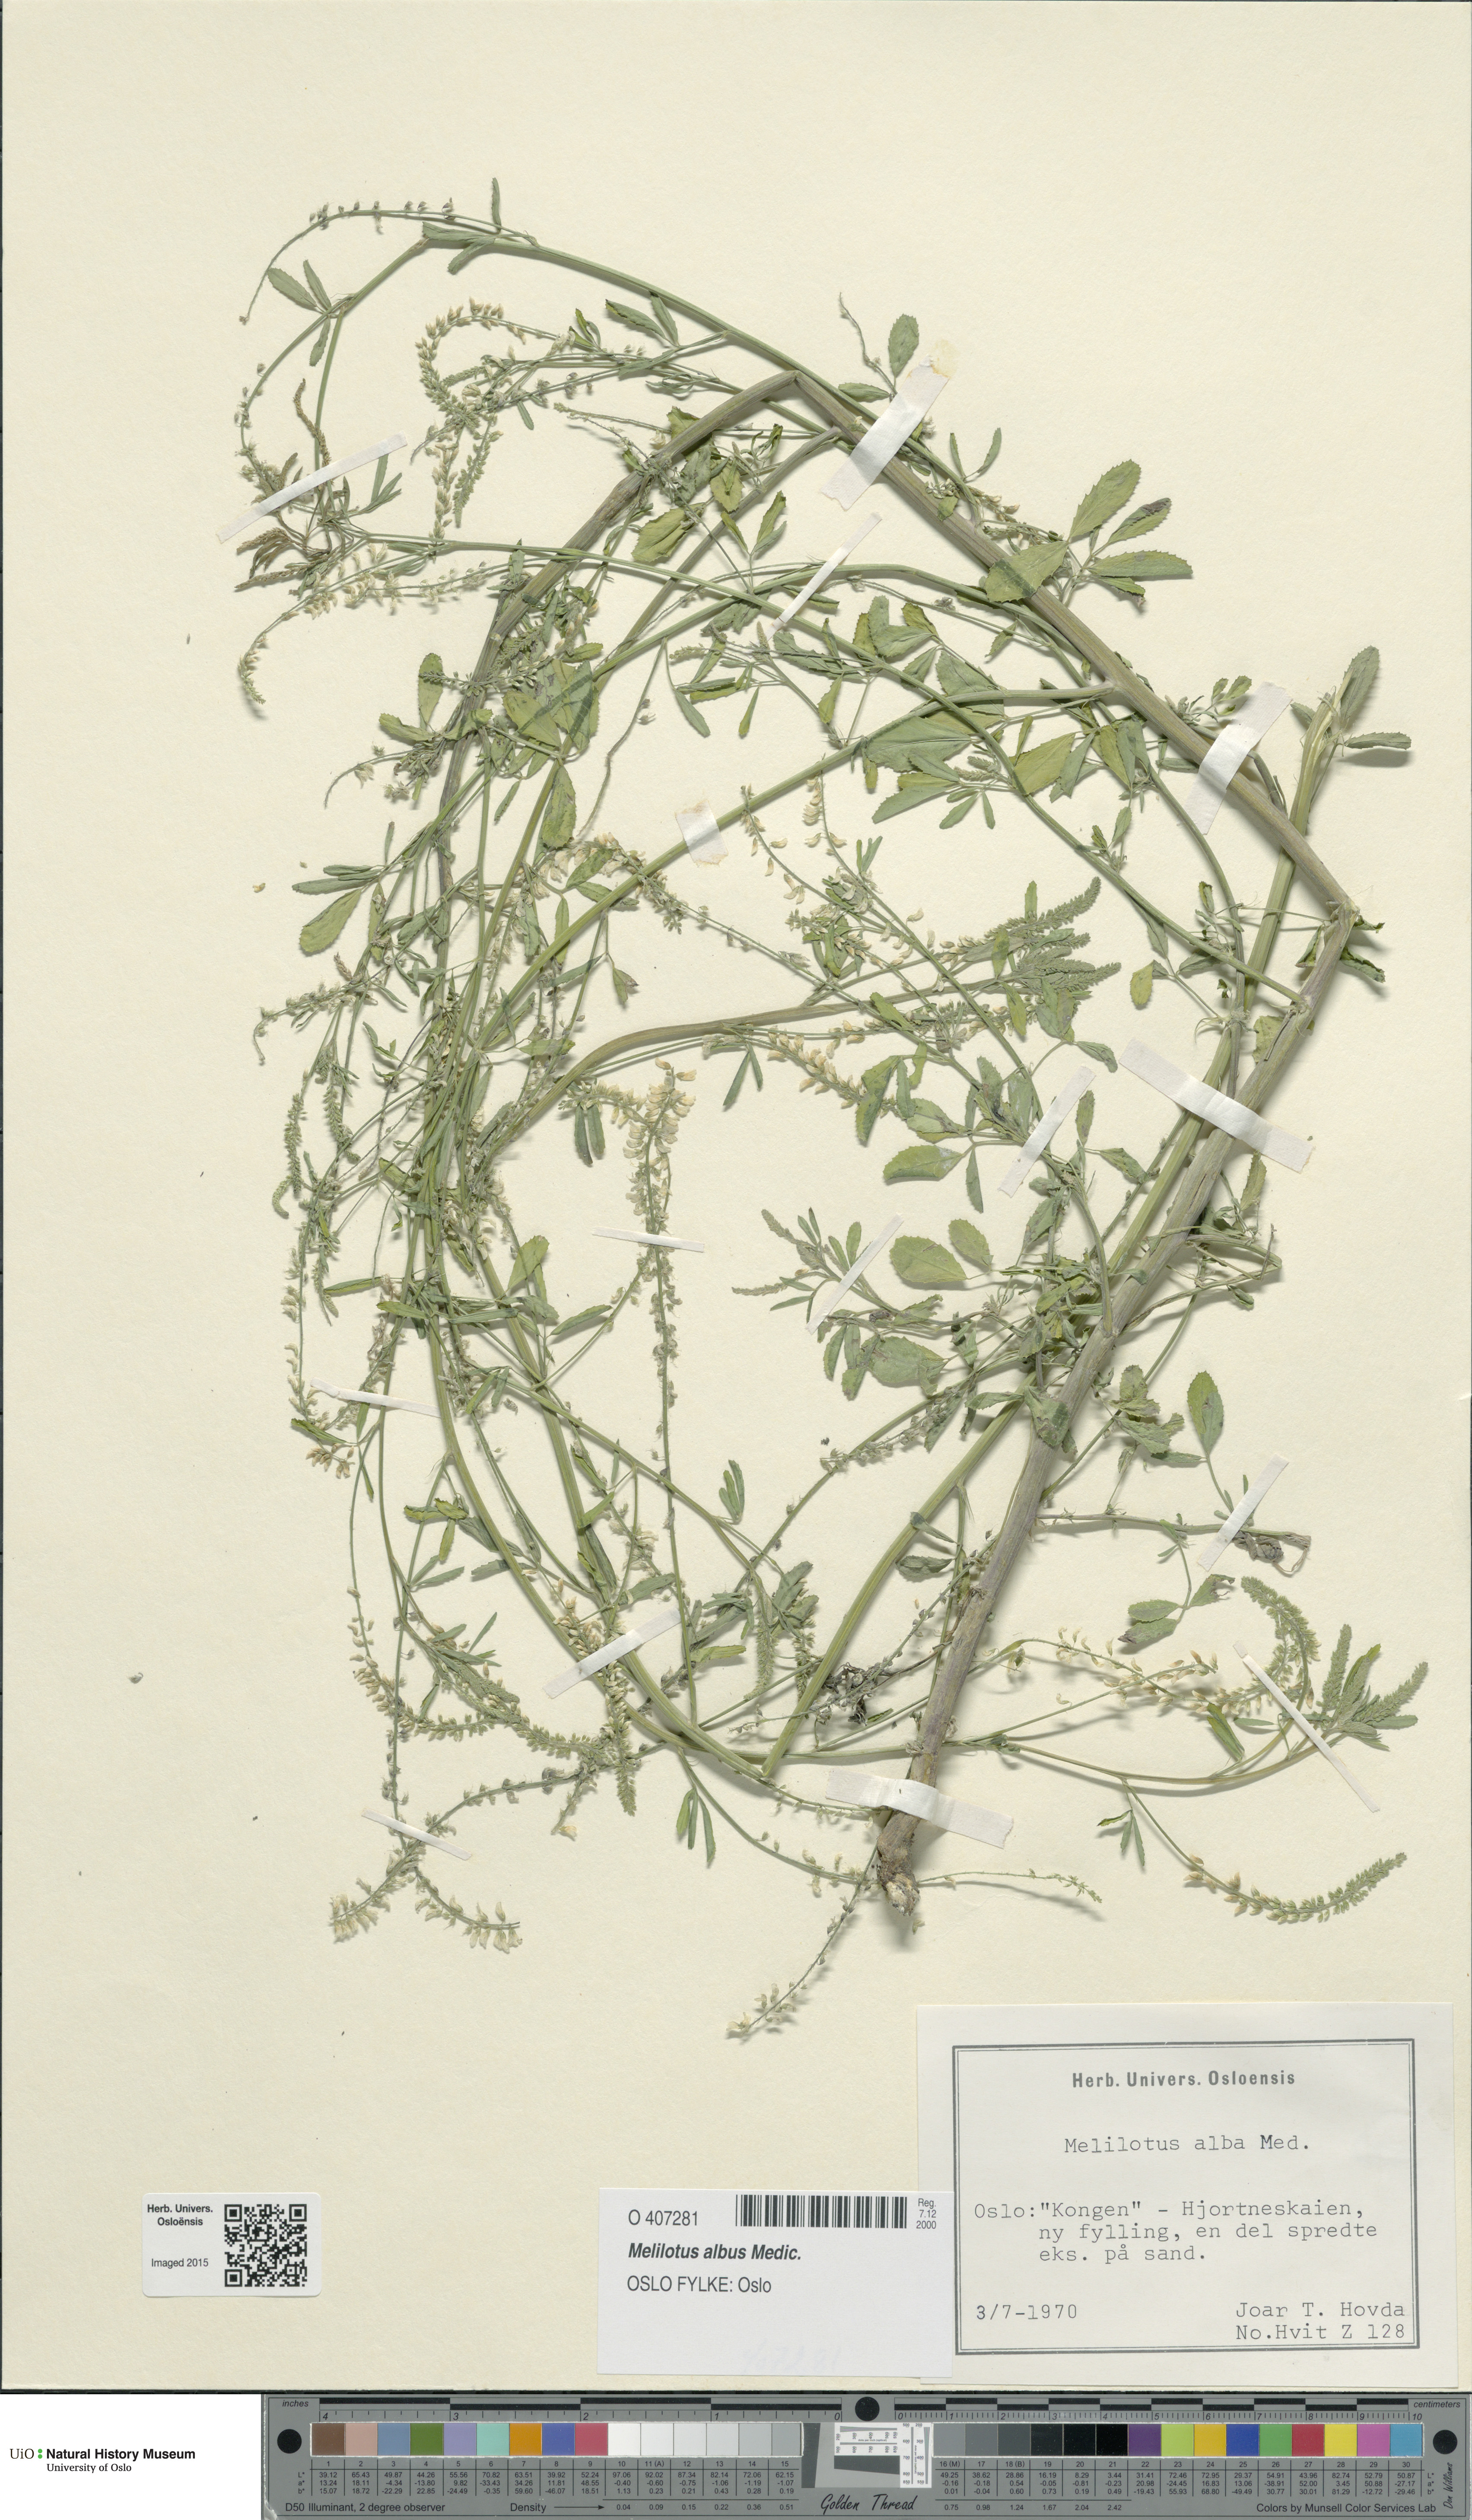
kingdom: Plantae
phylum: Tracheophyta
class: Magnoliopsida
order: Fabales
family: Fabaceae
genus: Melilotus
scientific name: Melilotus albus
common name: White melilot
